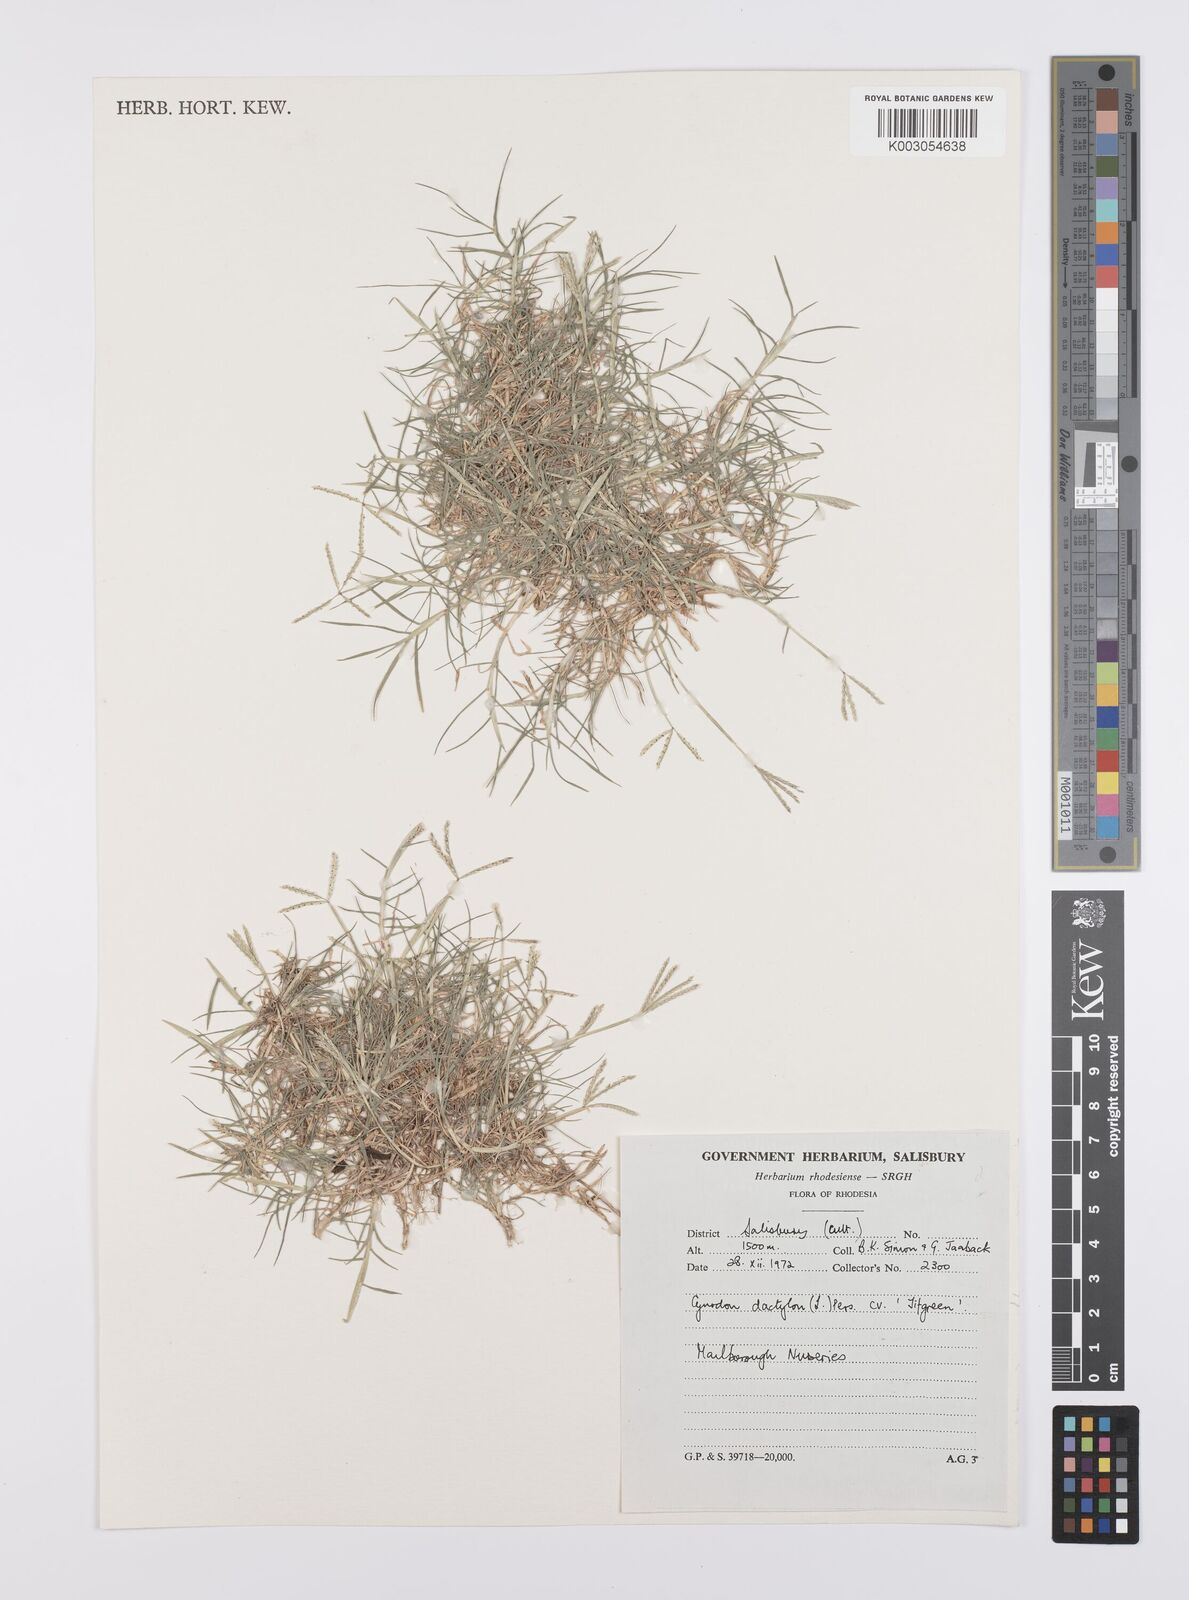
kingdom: Plantae
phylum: Tracheophyta
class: Liliopsida
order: Poales
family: Poaceae
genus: Cynodon
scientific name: Cynodon dactylon
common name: Bermuda grass
